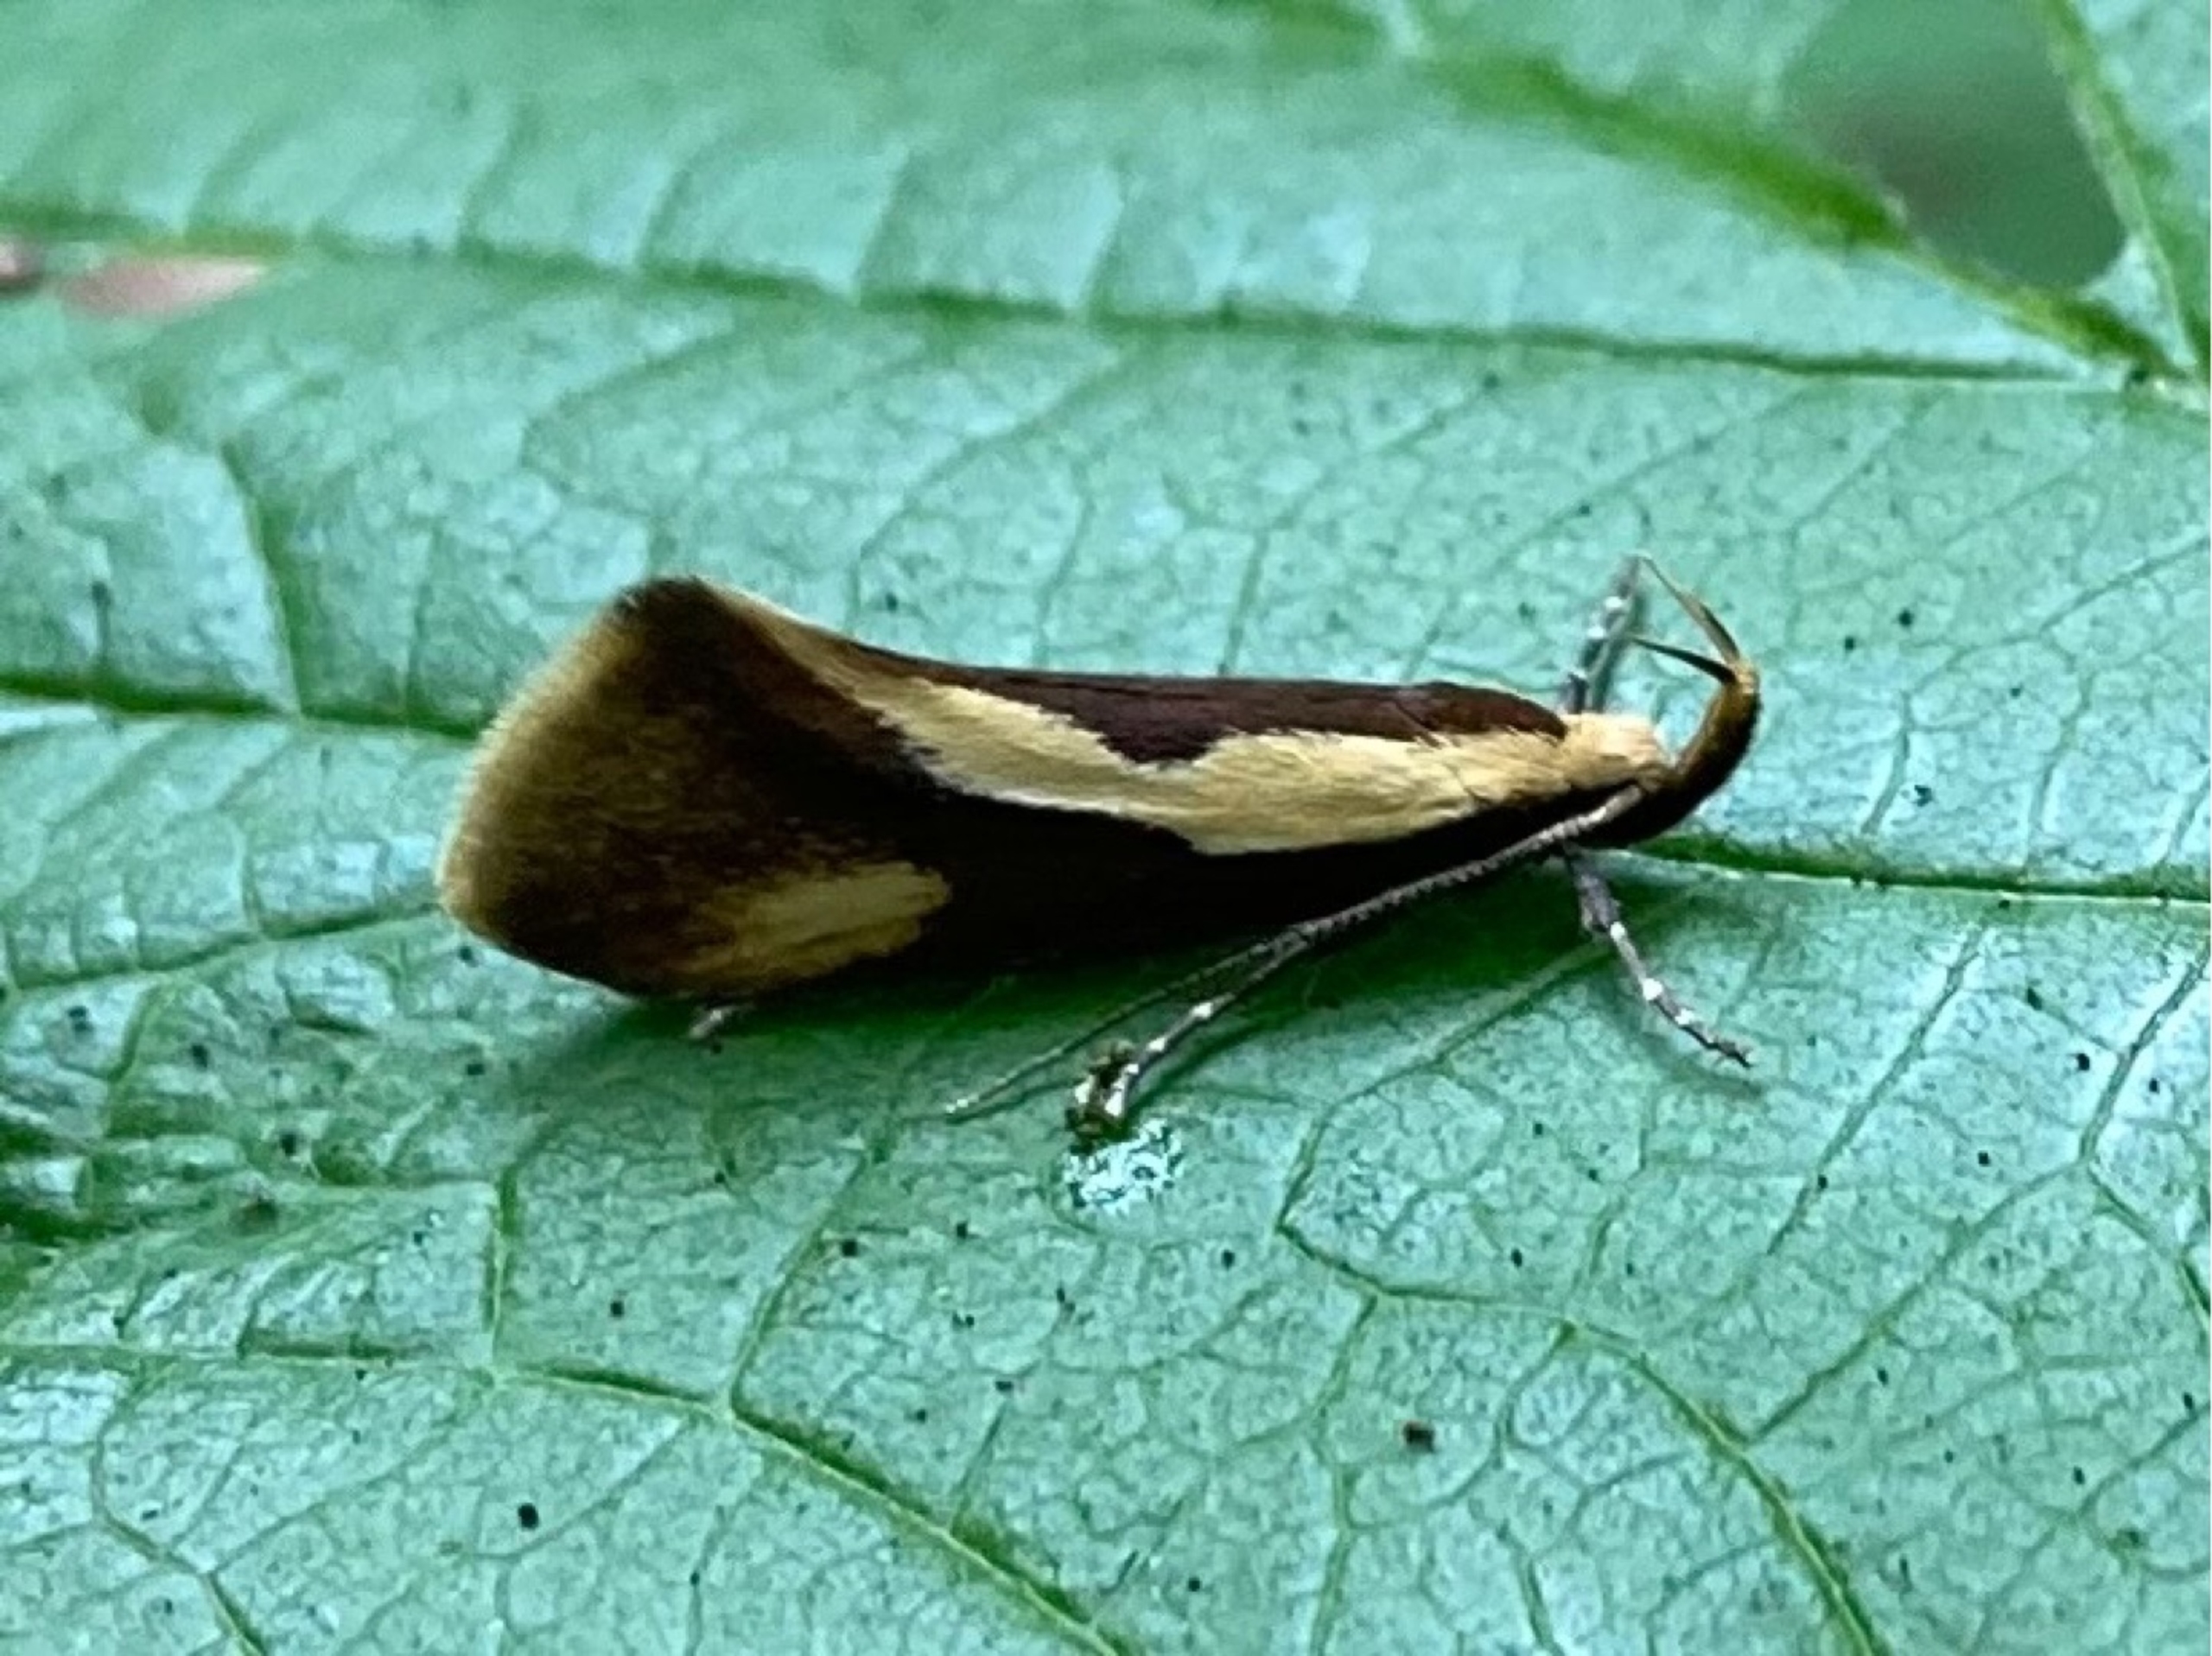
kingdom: Animalia
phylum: Arthropoda
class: Insecta
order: Lepidoptera
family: Oecophoridae
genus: Harpella
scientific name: Harpella forficella
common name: Kæmpeprydvinge
